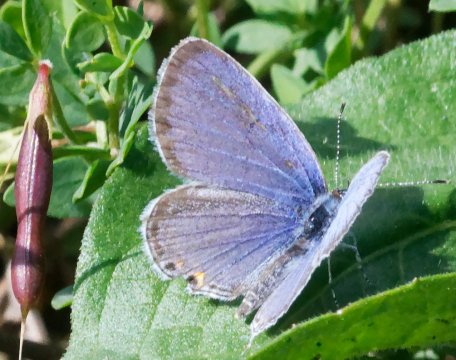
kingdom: Animalia
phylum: Arthropoda
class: Insecta
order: Lepidoptera
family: Lycaenidae
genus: Elkalyce
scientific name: Elkalyce comyntas
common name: Eastern Tailed-Blue
